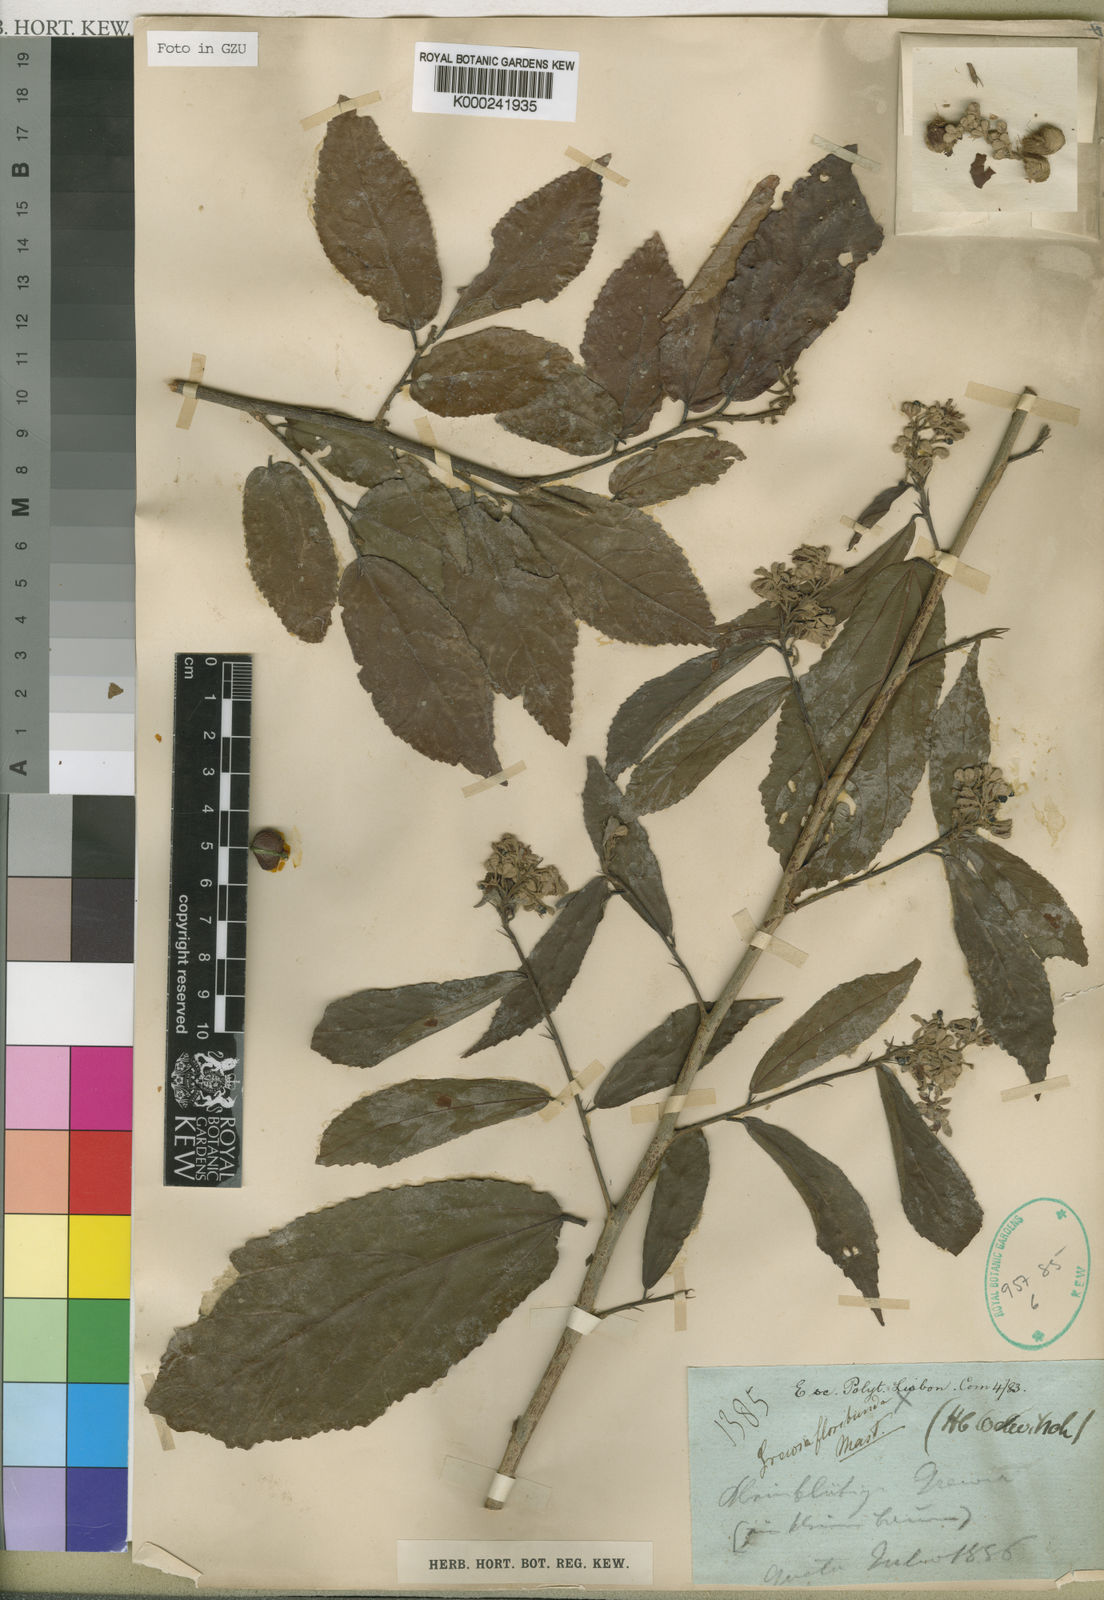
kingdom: Plantae
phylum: Tracheophyta
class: Magnoliopsida
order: Malvales
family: Malvaceae
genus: Microcos
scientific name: Microcos floribunda
